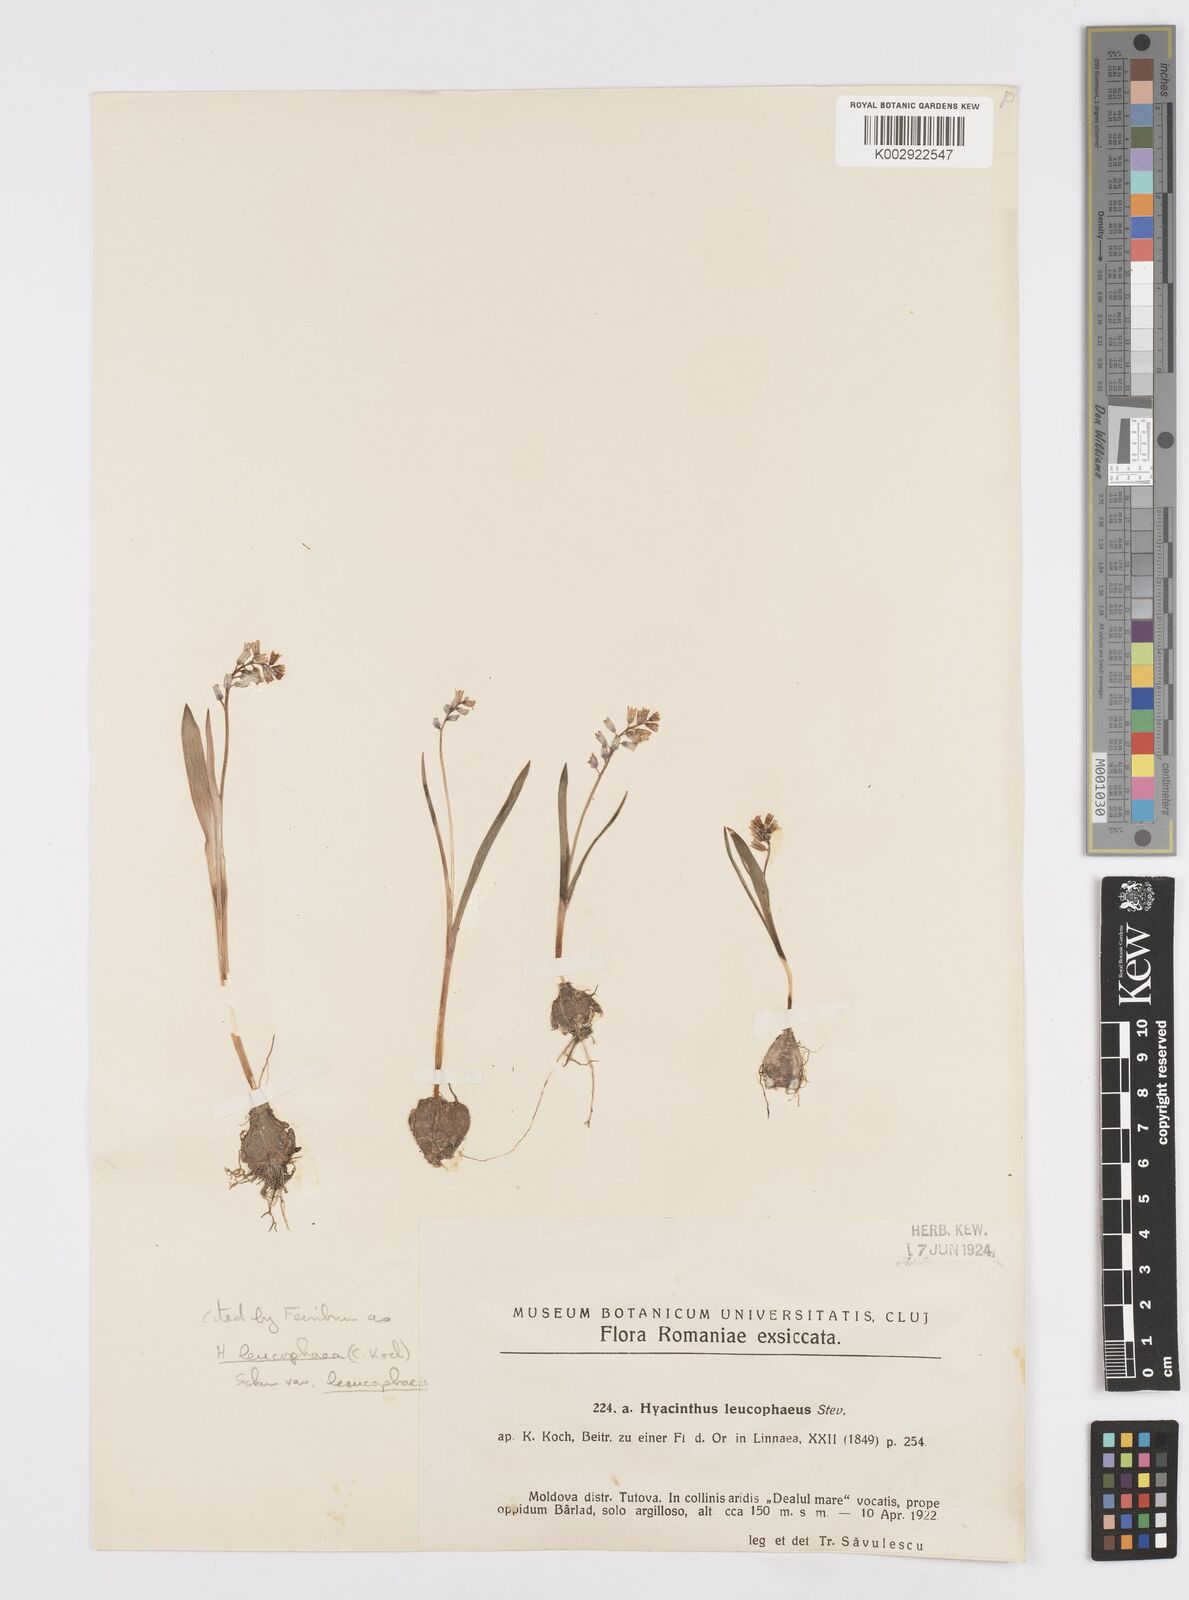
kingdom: Plantae
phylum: Tracheophyta
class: Liliopsida
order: Asparagales
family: Asparagaceae
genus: Hyacinthella
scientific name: Hyacinthella leucophaea
